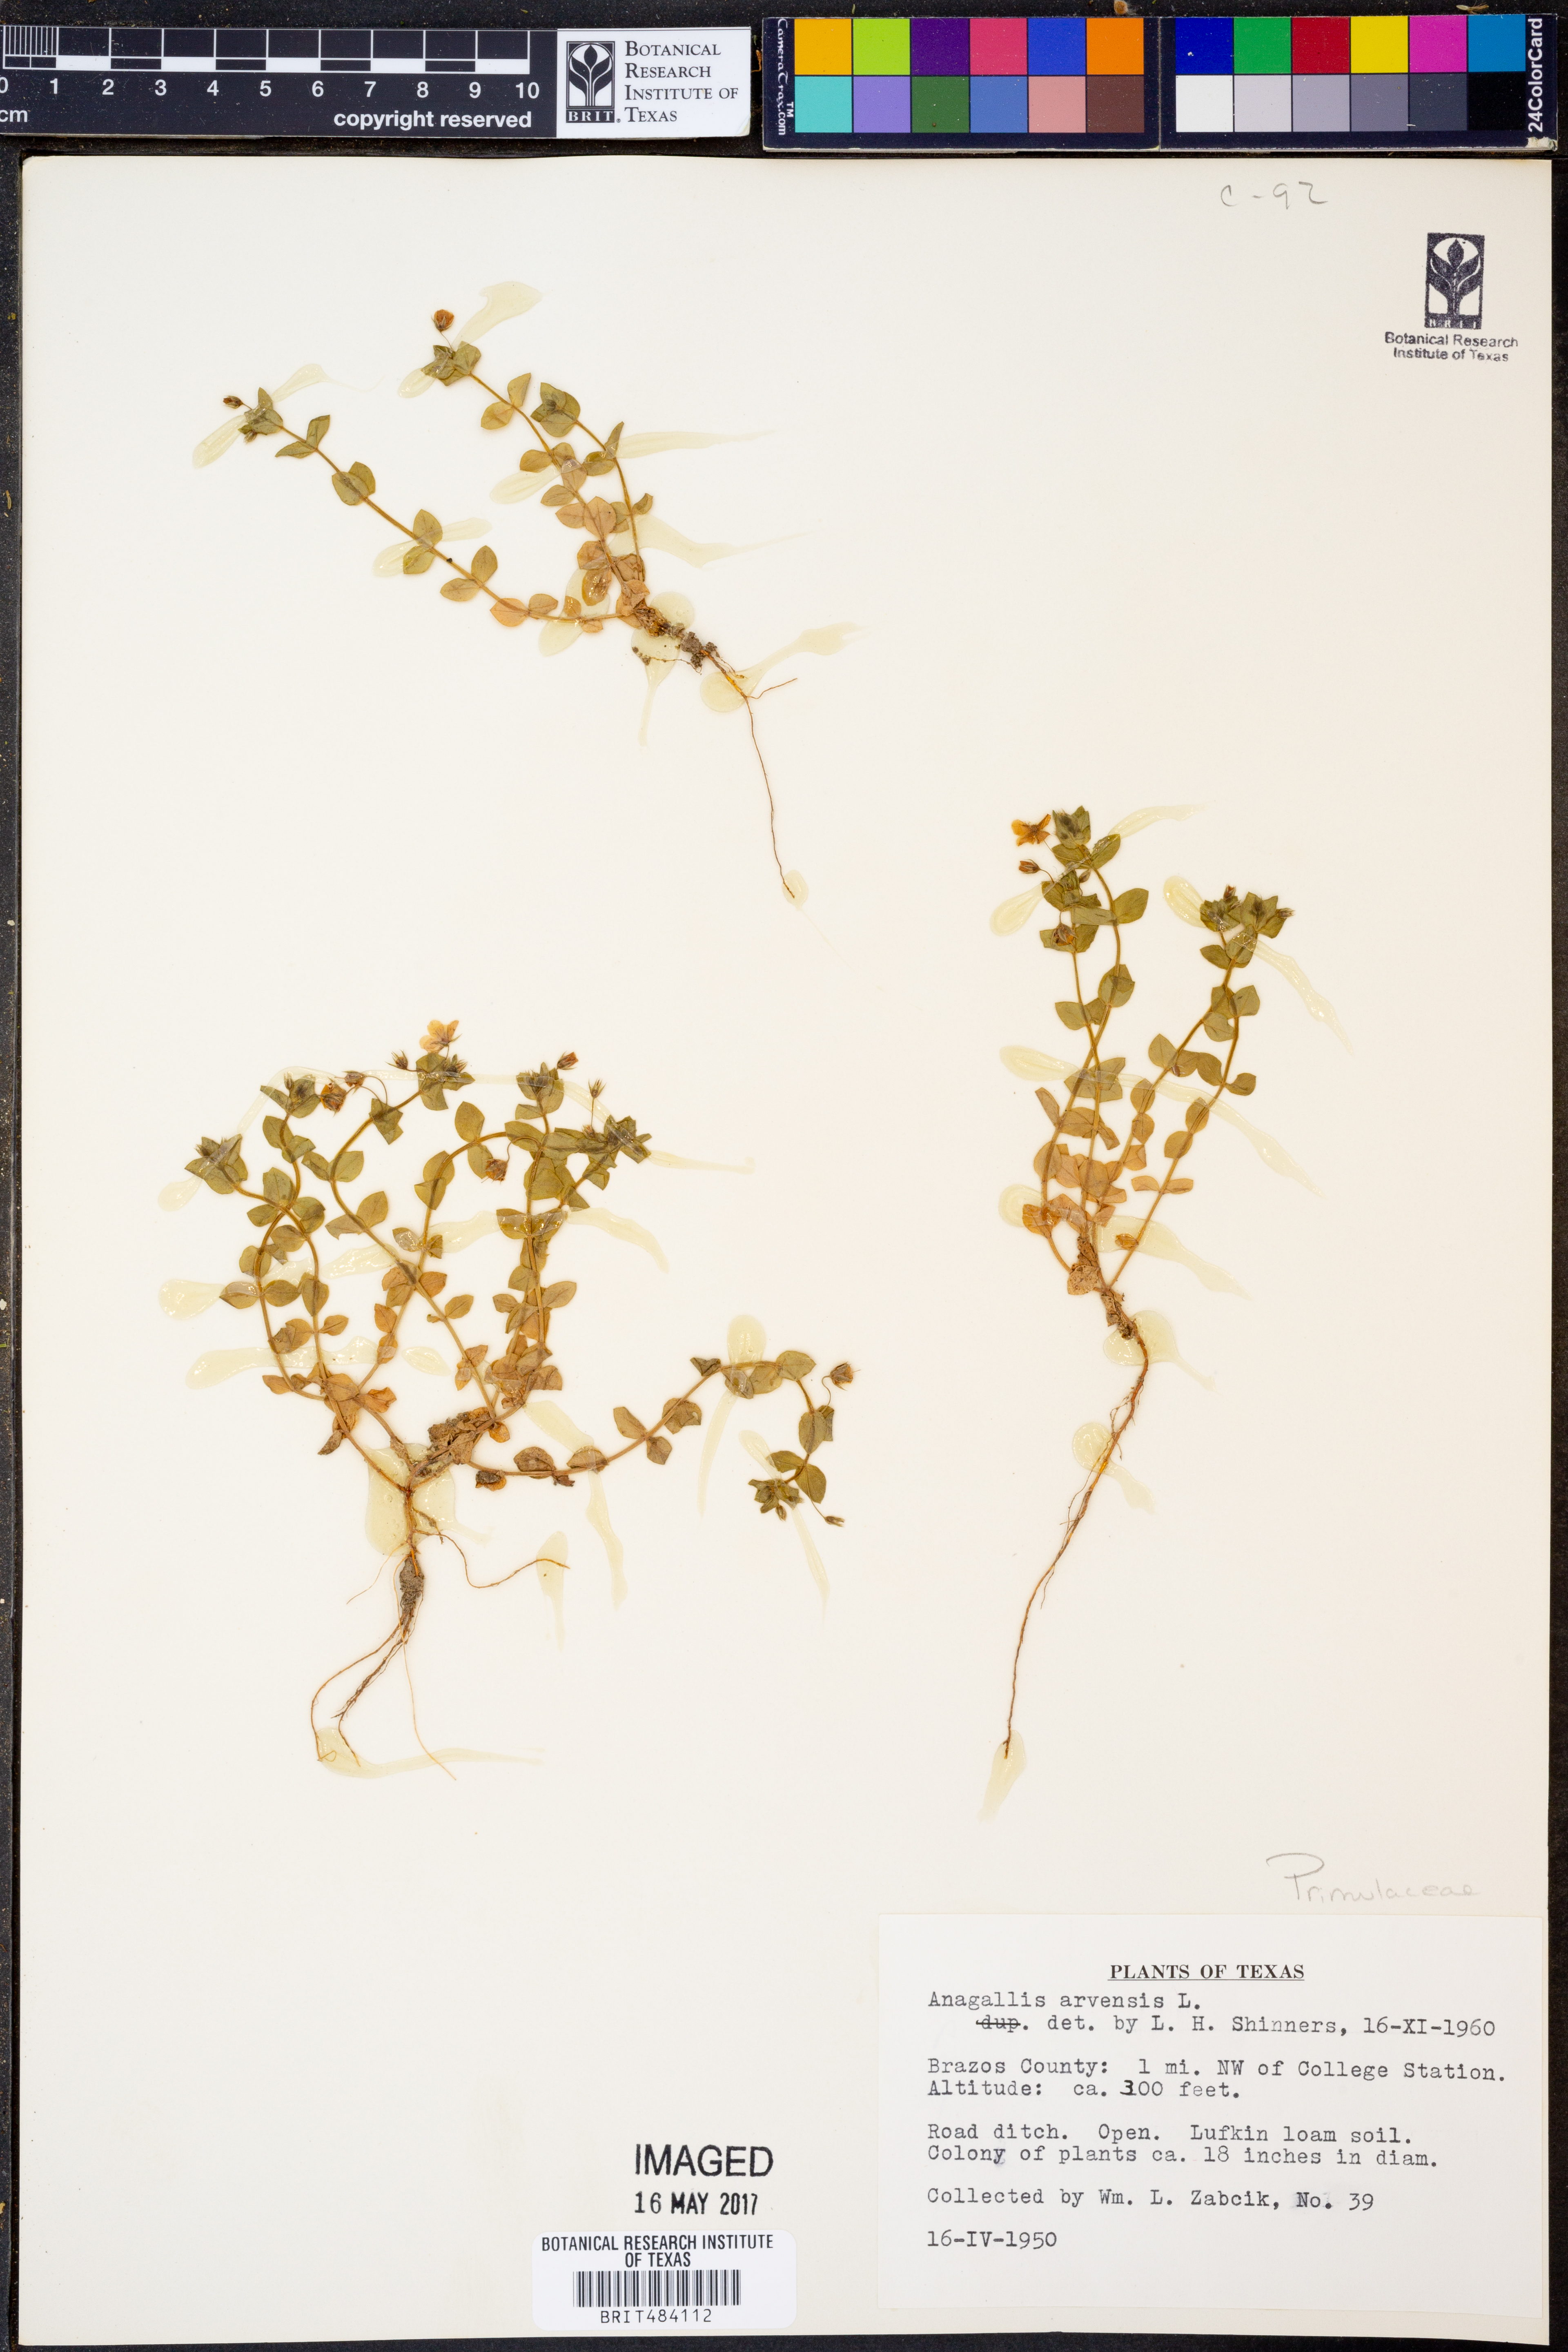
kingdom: Plantae
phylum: Tracheophyta
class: Magnoliopsida
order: Ericales
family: Primulaceae
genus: Lysimachia
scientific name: Lysimachia arvensis
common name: Scarlet pimpernel
